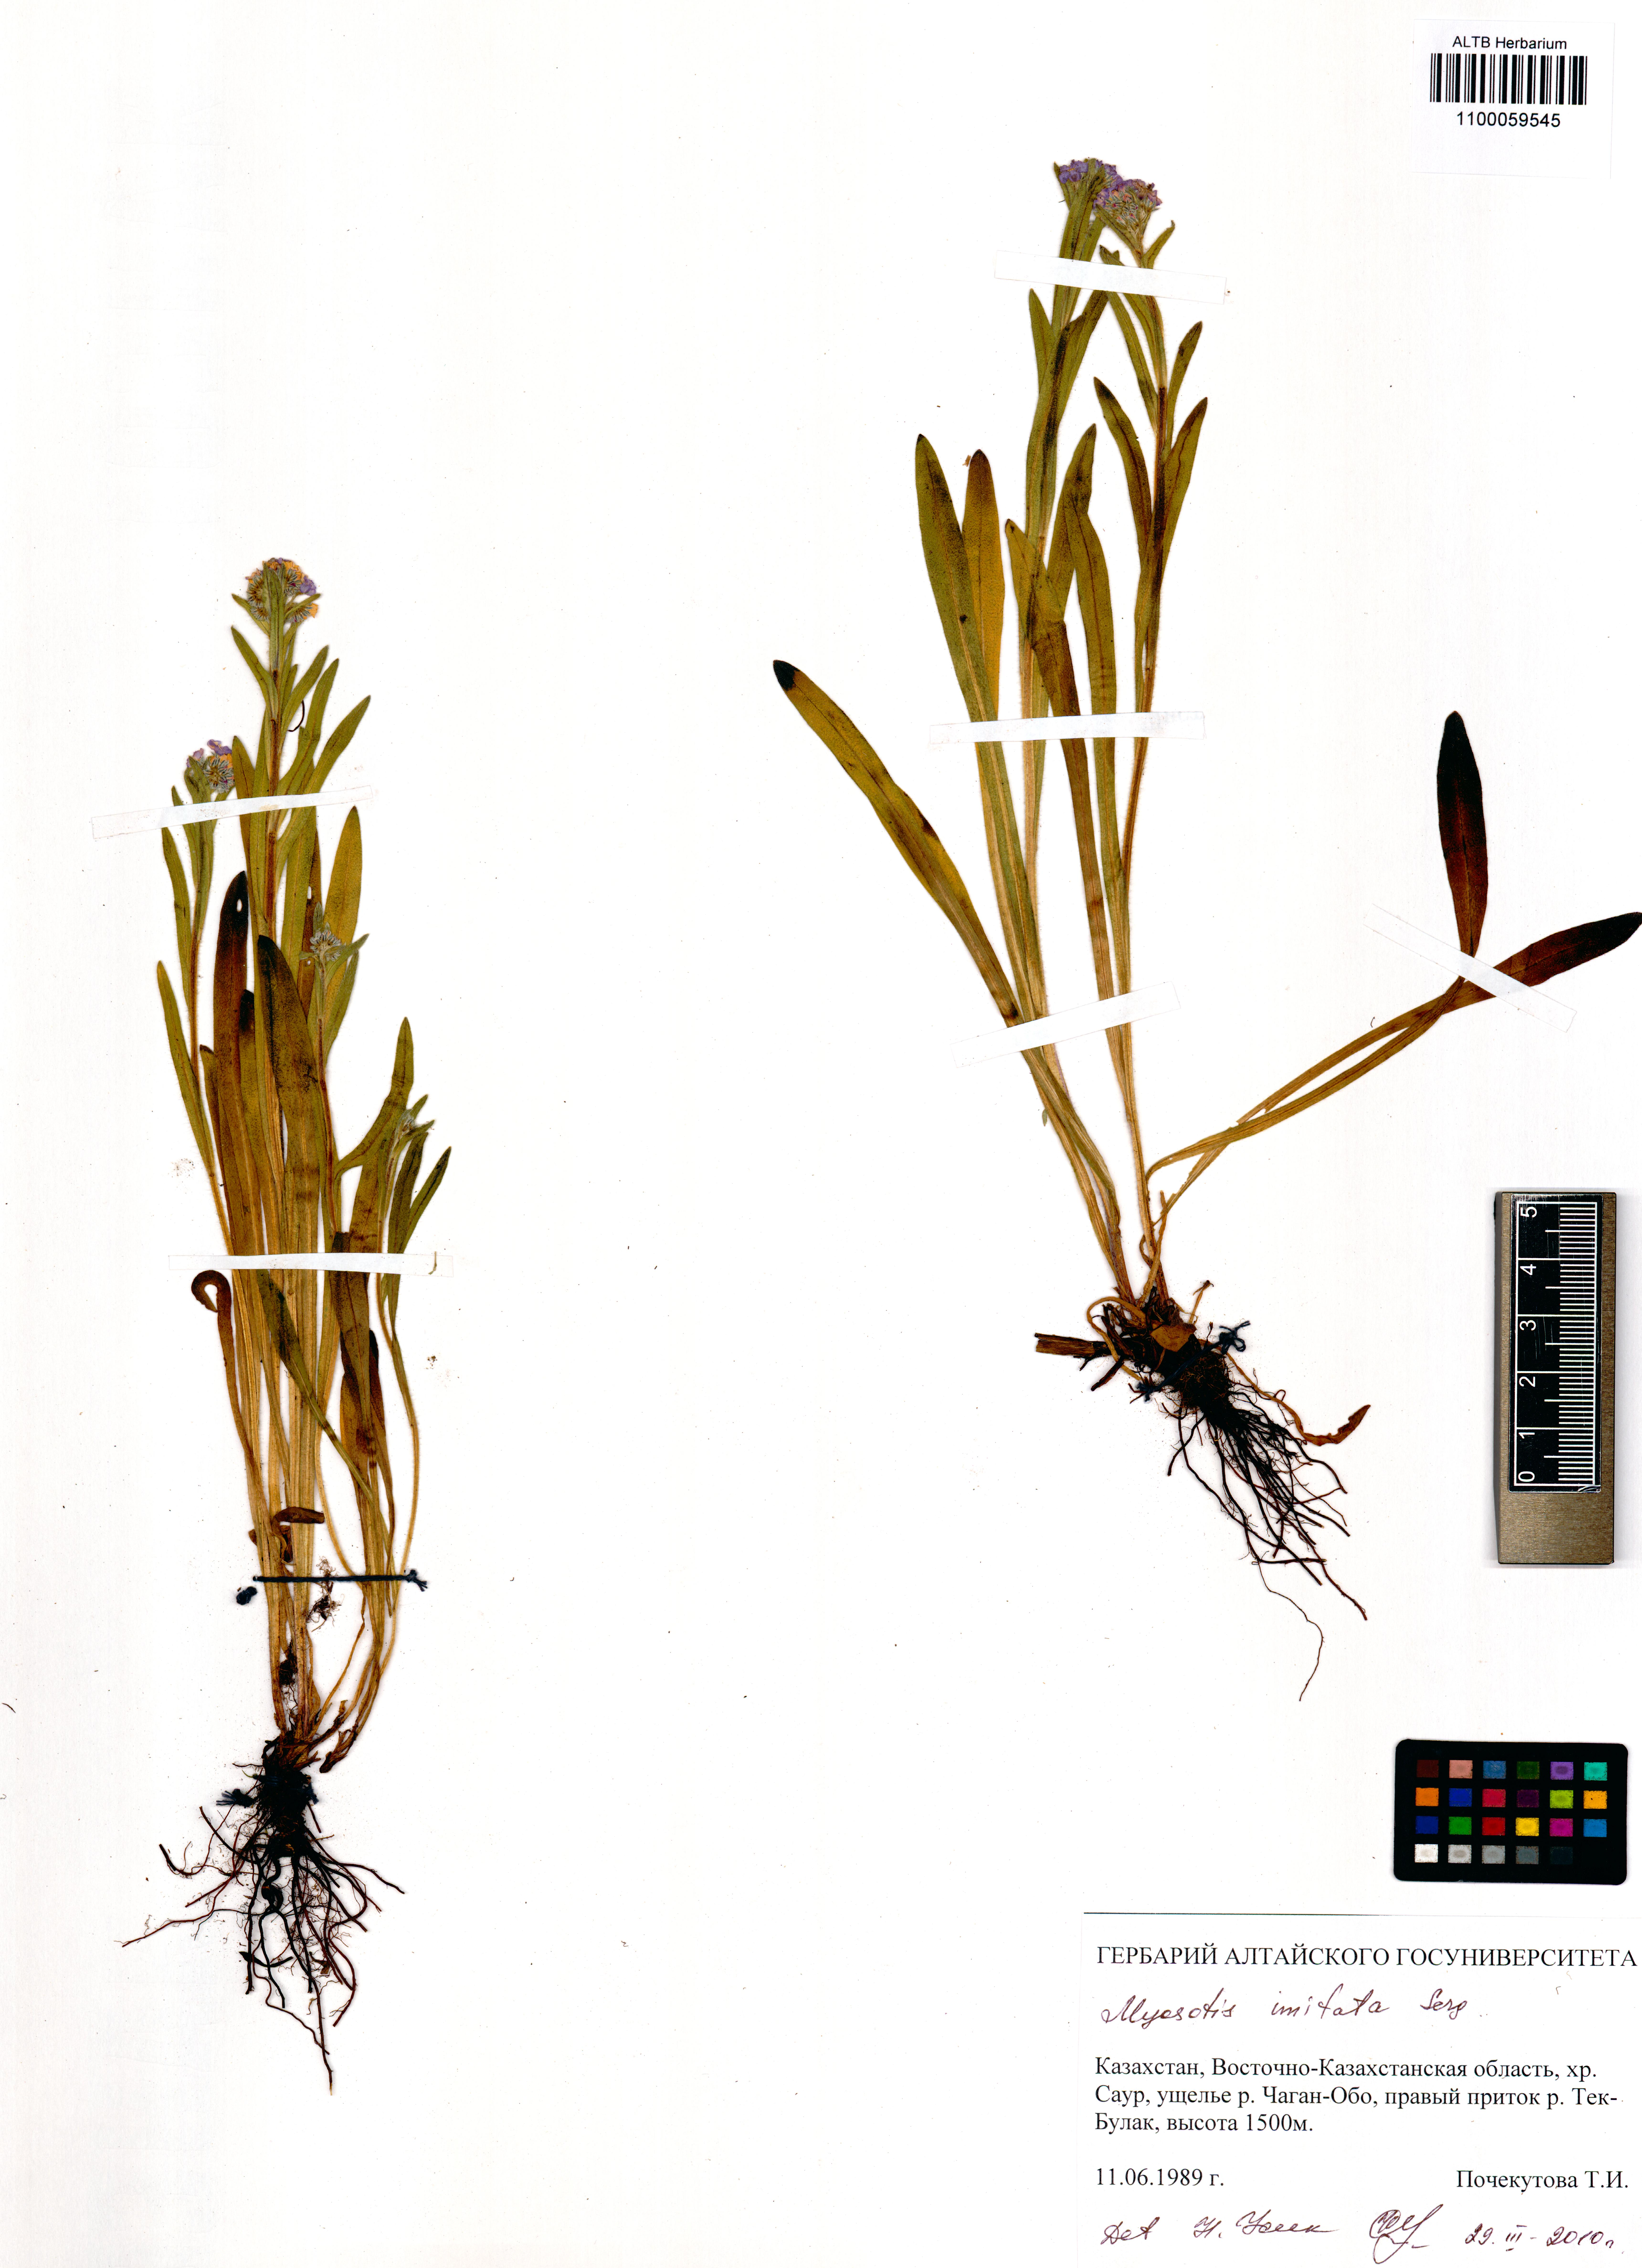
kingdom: Plantae
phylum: Tracheophyta
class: Magnoliopsida
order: Boraginales
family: Boraginaceae
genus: Myosotis
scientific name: Myosotis imitata
